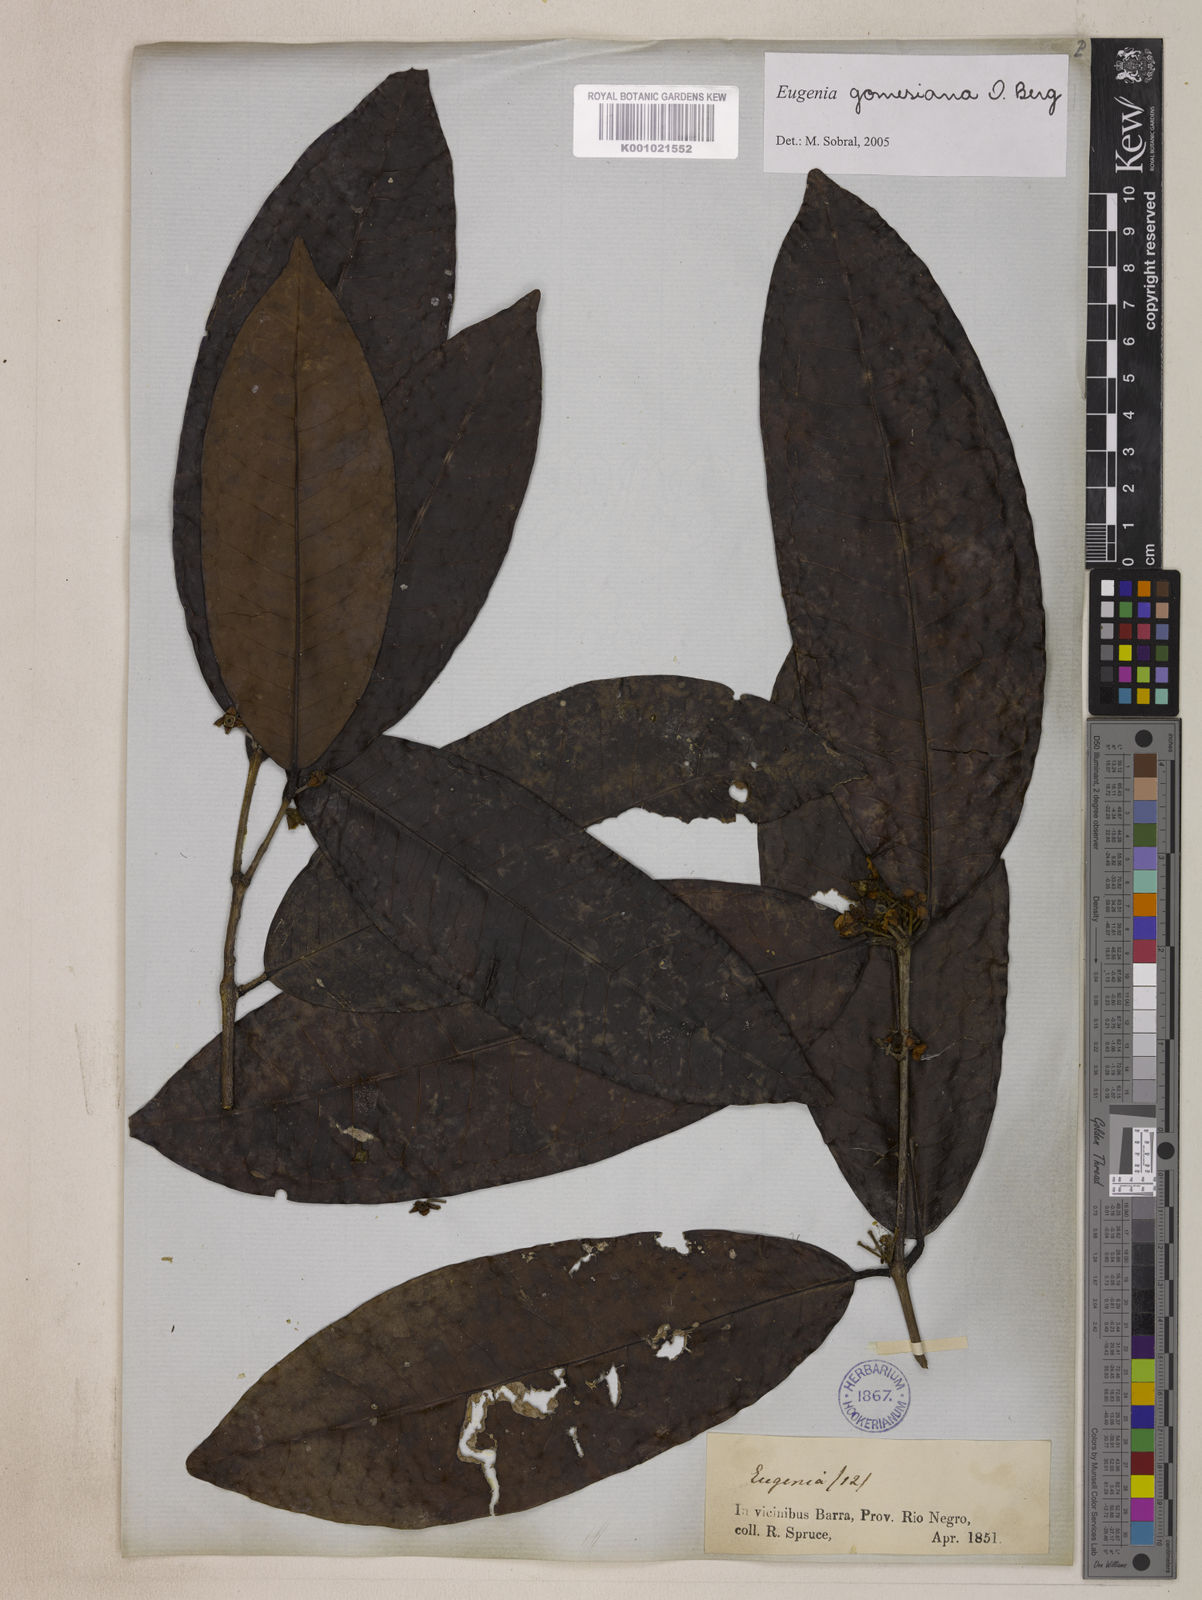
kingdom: Plantae
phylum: Tracheophyta
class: Magnoliopsida
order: Myrtales
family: Myrtaceae
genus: Eugenia
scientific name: Eugenia gomesiana
